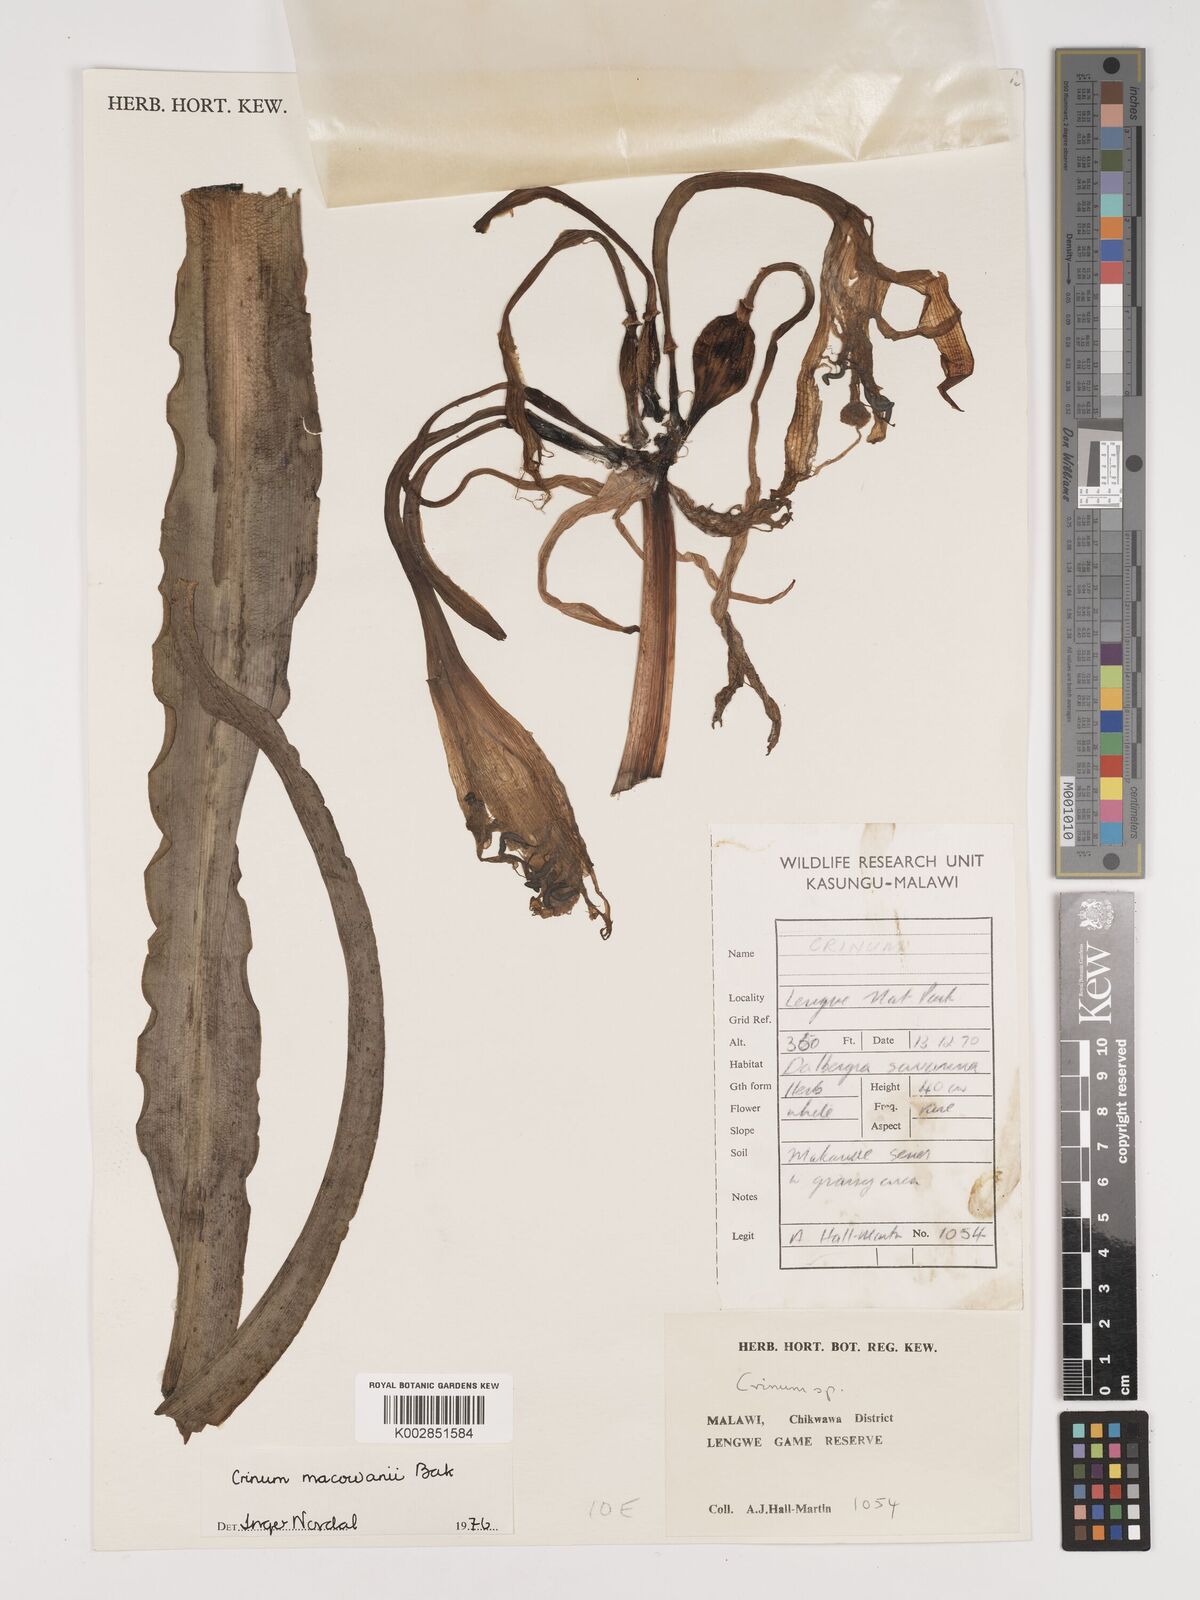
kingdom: Plantae
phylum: Tracheophyta
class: Liliopsida
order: Asparagales
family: Amaryllidaceae
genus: Crinum
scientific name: Crinum macowanii
